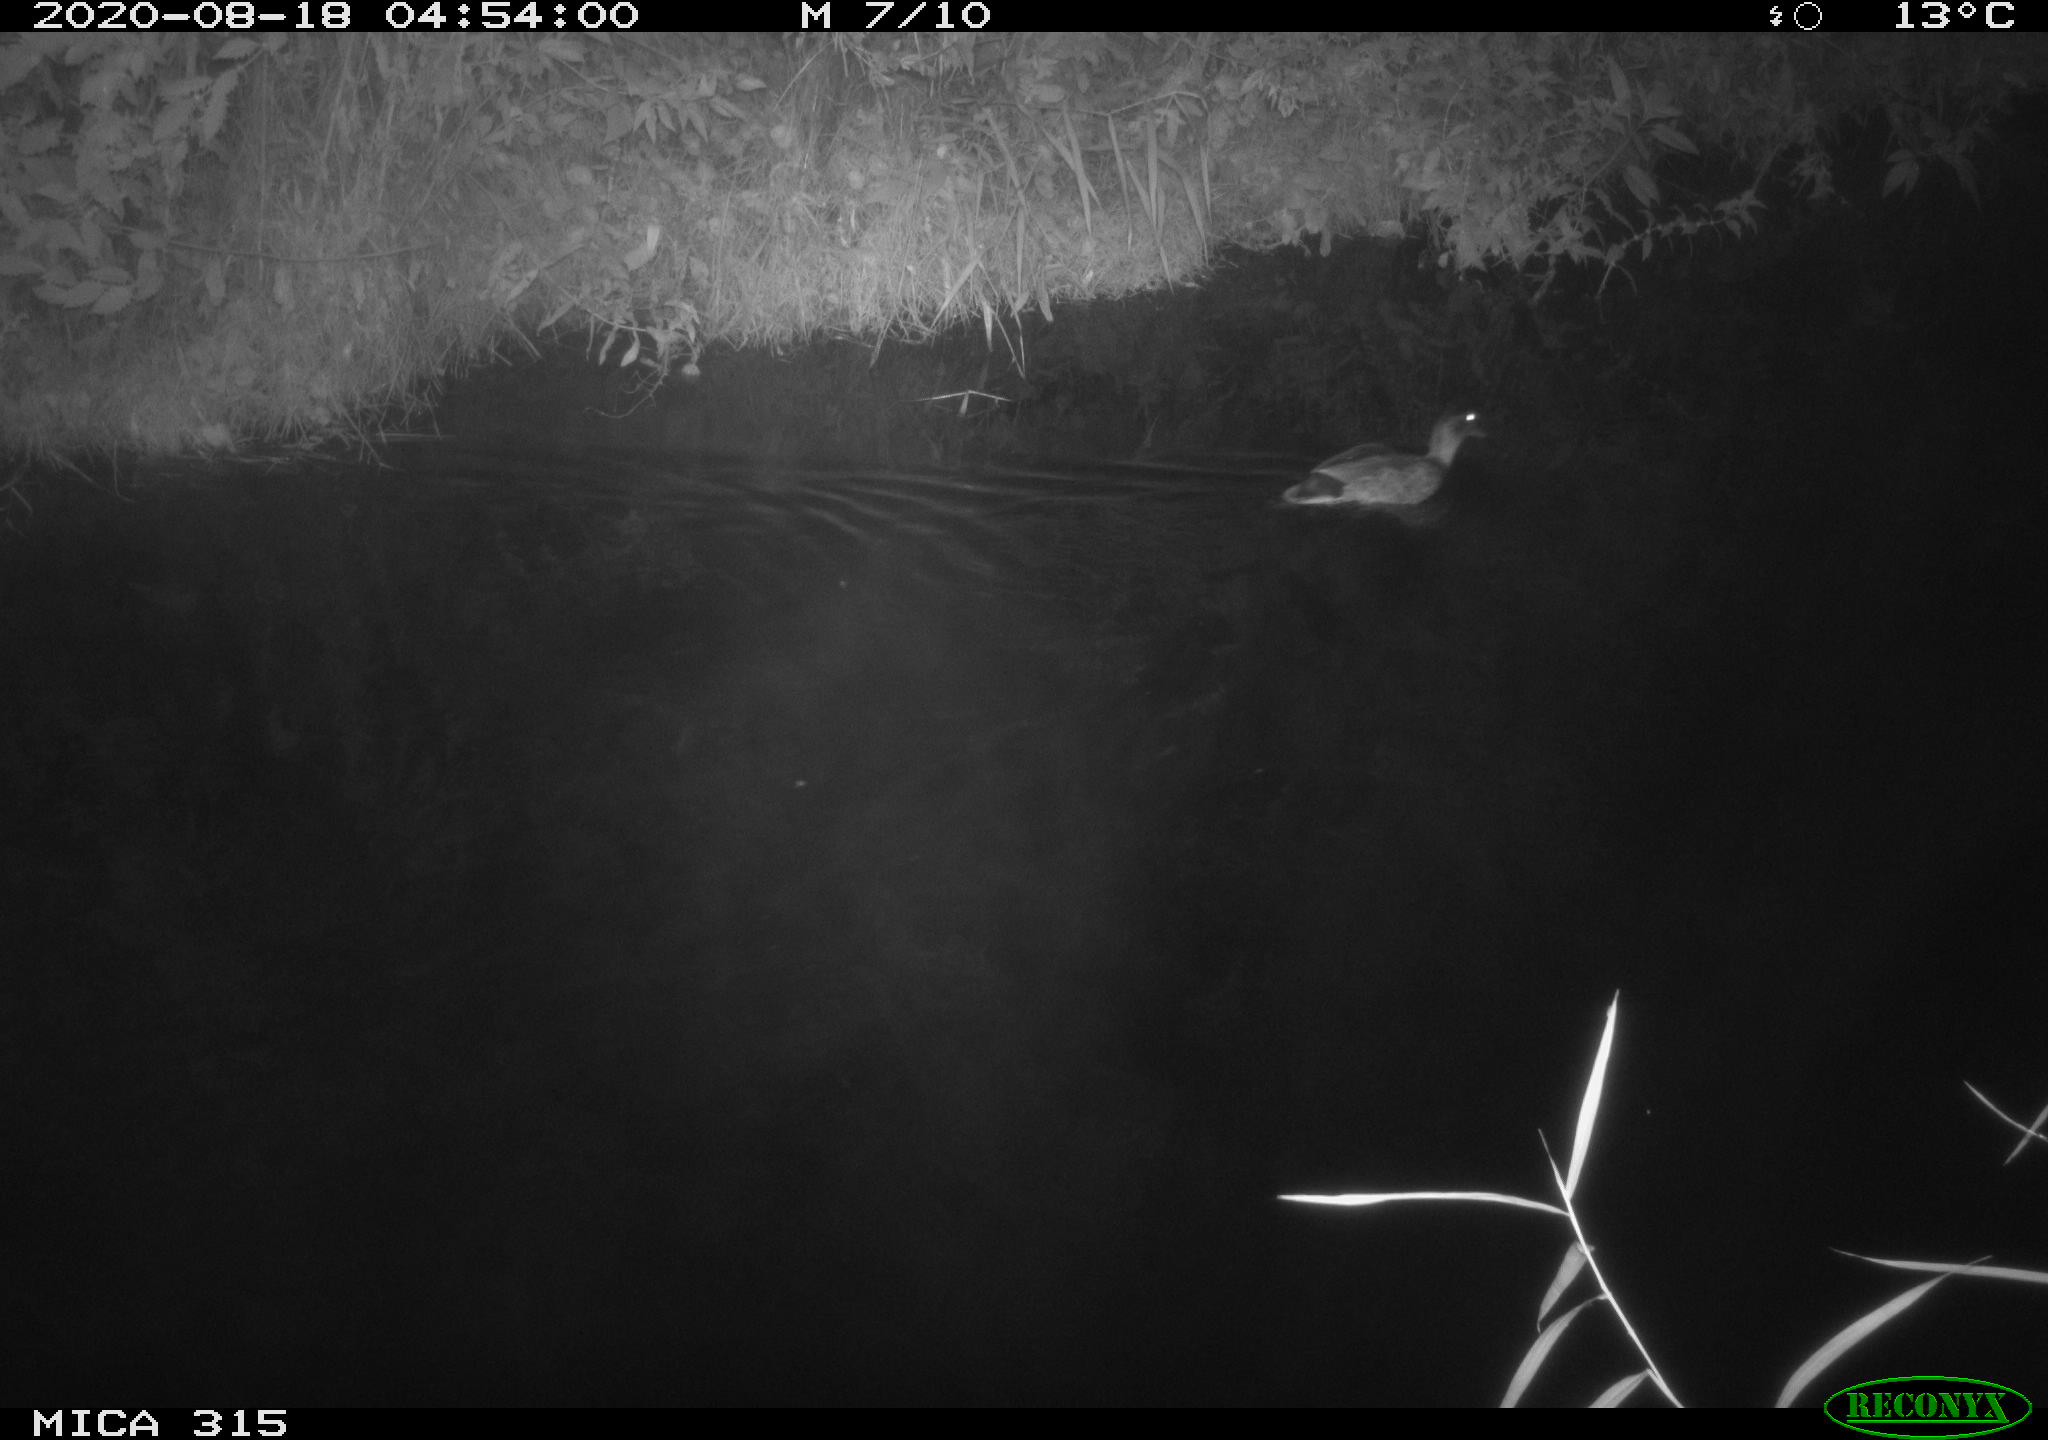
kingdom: Animalia
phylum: Chordata
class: Aves
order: Anseriformes
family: Anatidae
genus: Anas
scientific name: Anas platyrhynchos
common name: Mallard
